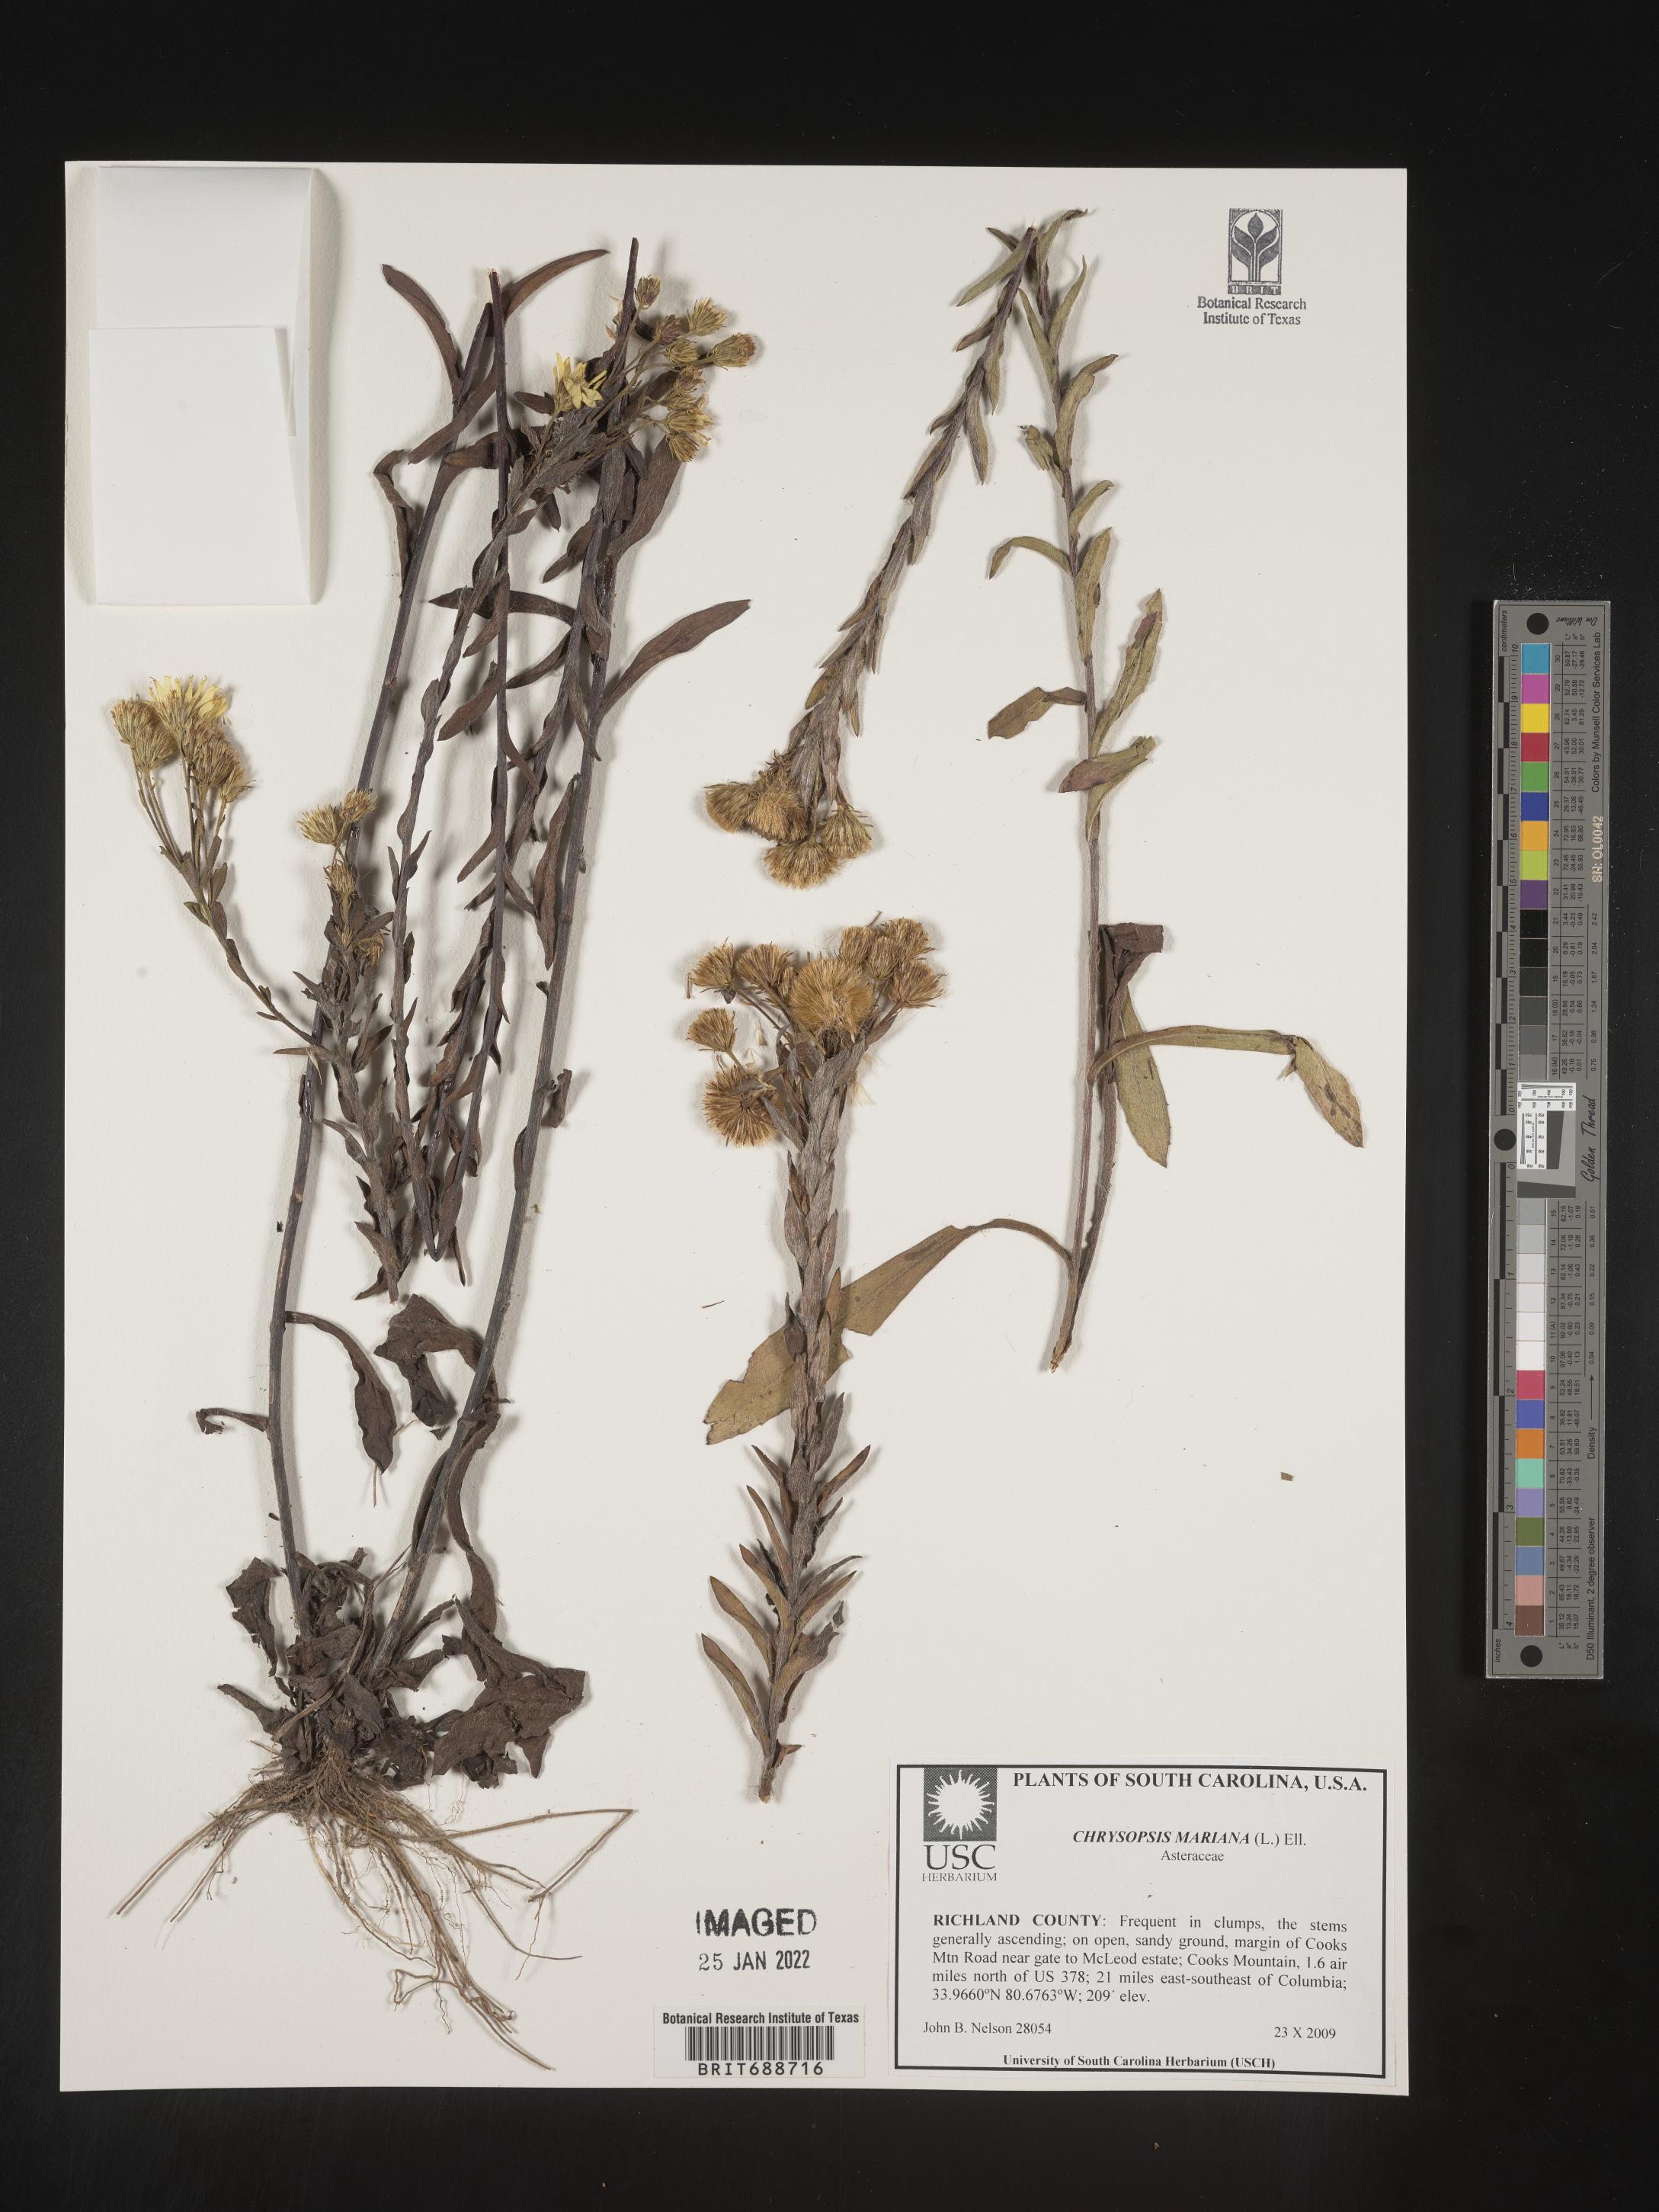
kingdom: Plantae
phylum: Tracheophyta
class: Magnoliopsida
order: Asterales
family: Asteraceae
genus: Chrysopsis
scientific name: Chrysopsis mariana
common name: Maryland golden-aster
